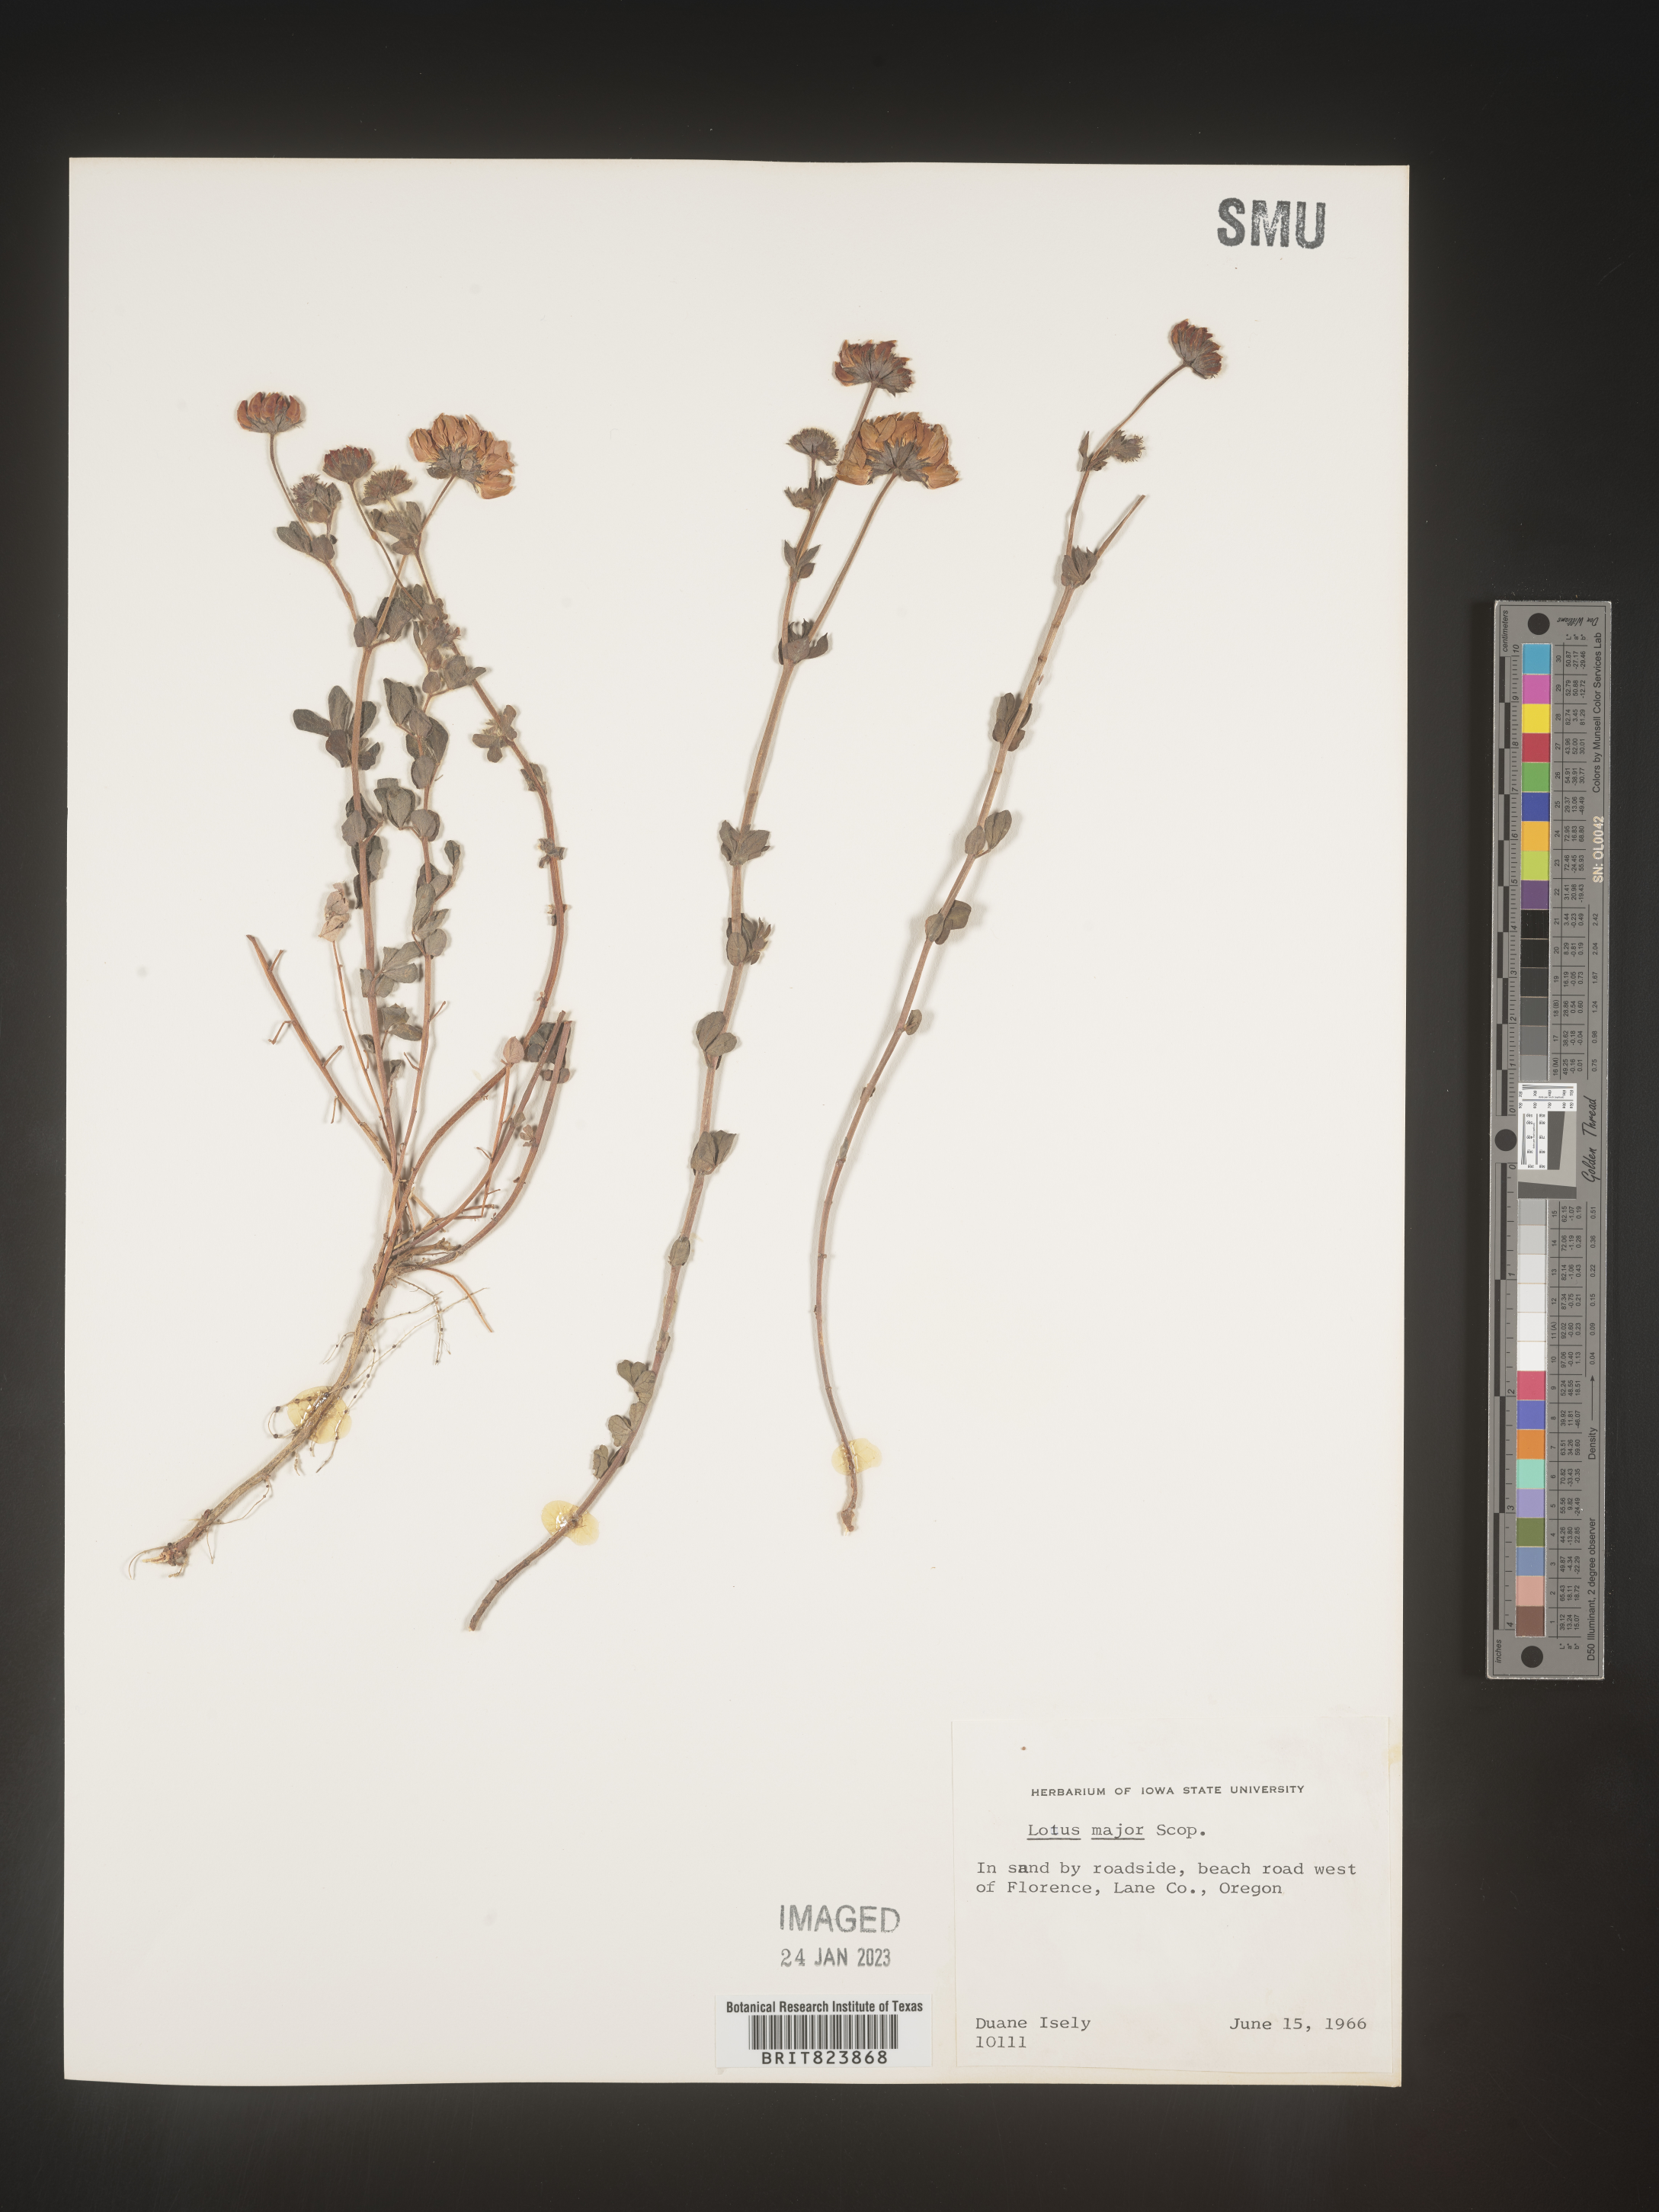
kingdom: Plantae
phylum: Tracheophyta
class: Magnoliopsida
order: Fabales
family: Fabaceae
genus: Lotus
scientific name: Lotus
